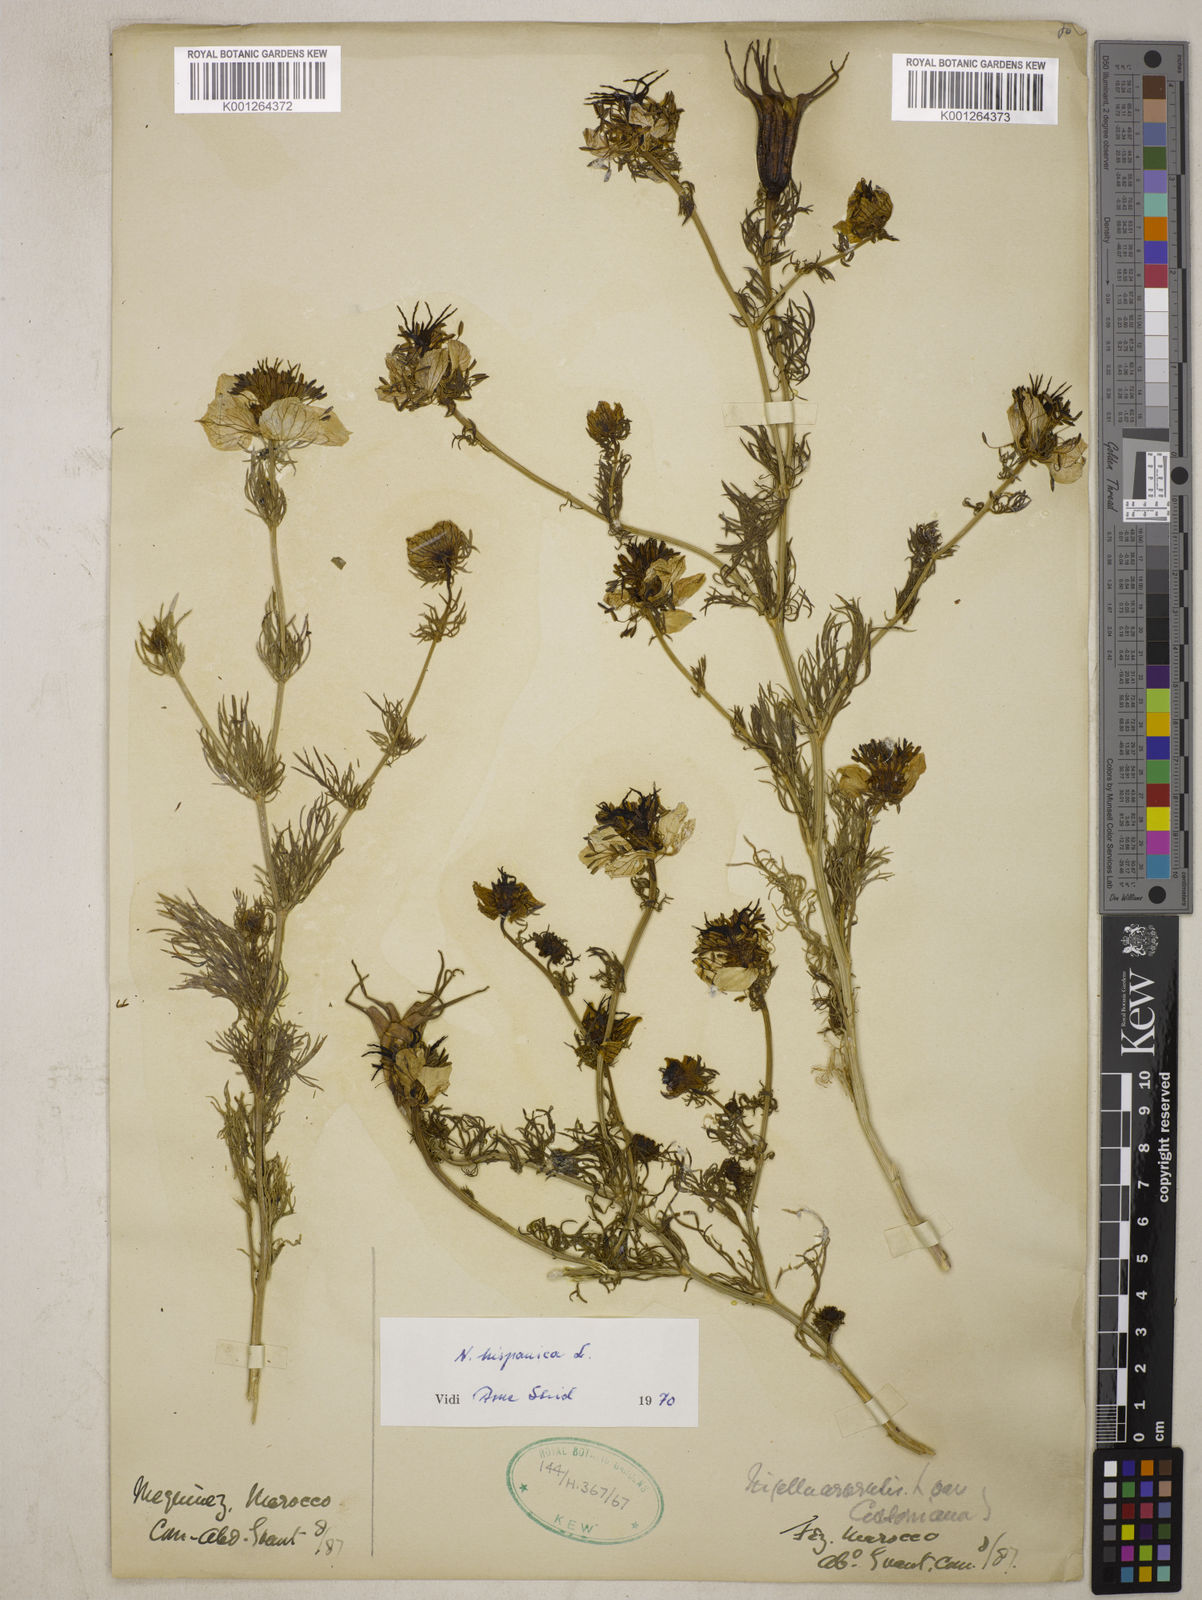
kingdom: Plantae
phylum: Tracheophyta
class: Magnoliopsida
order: Ranunculales
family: Ranunculaceae
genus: Nigella
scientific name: Nigella hispanica
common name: Fennel-flower
